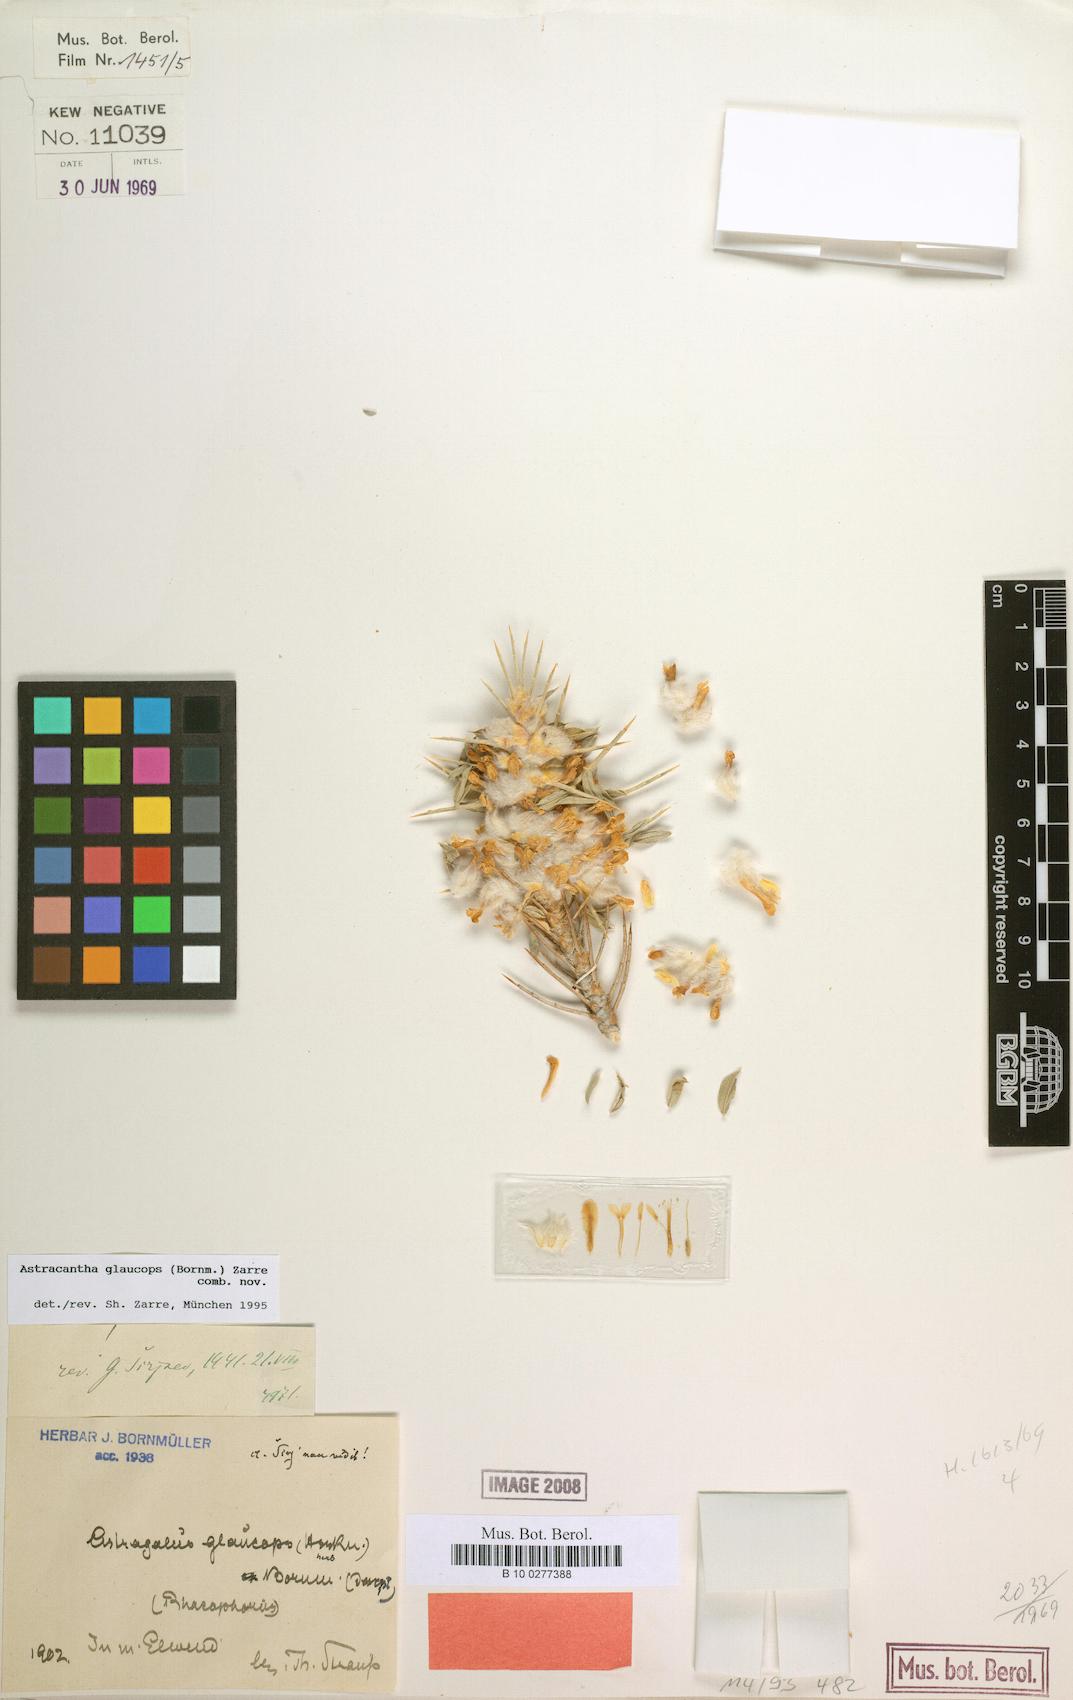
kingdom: Chromista
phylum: Cercozoa
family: Astracanthidae
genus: Astracantha
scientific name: Astracantha
